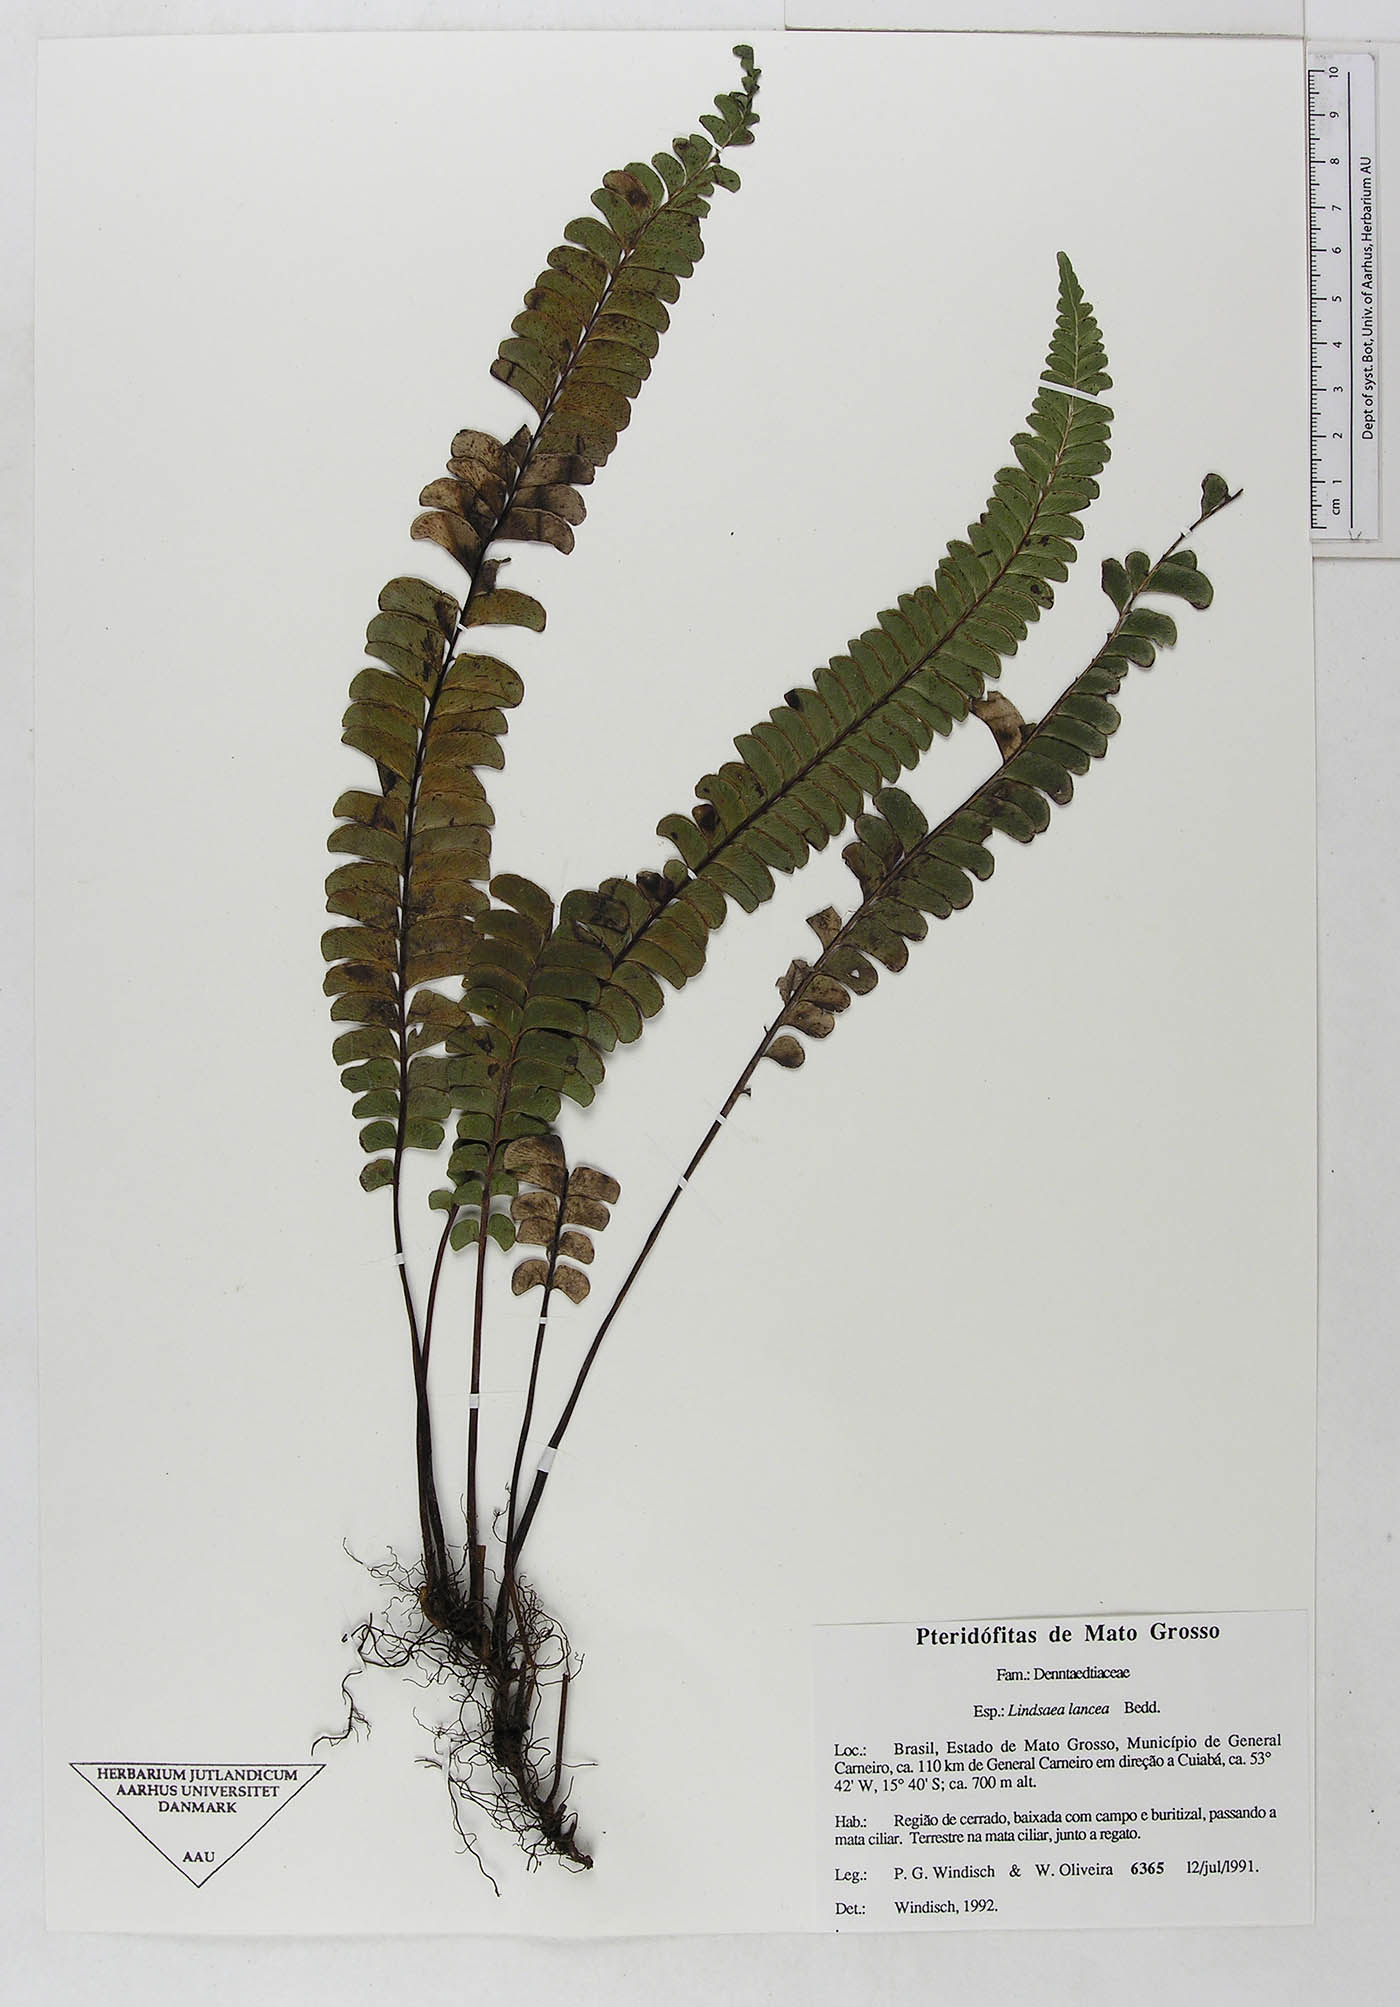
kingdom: Plantae
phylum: Tracheophyta
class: Polypodiopsida
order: Polypodiales
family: Dennstaedtiaceae
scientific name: Dennstaedtiaceae
